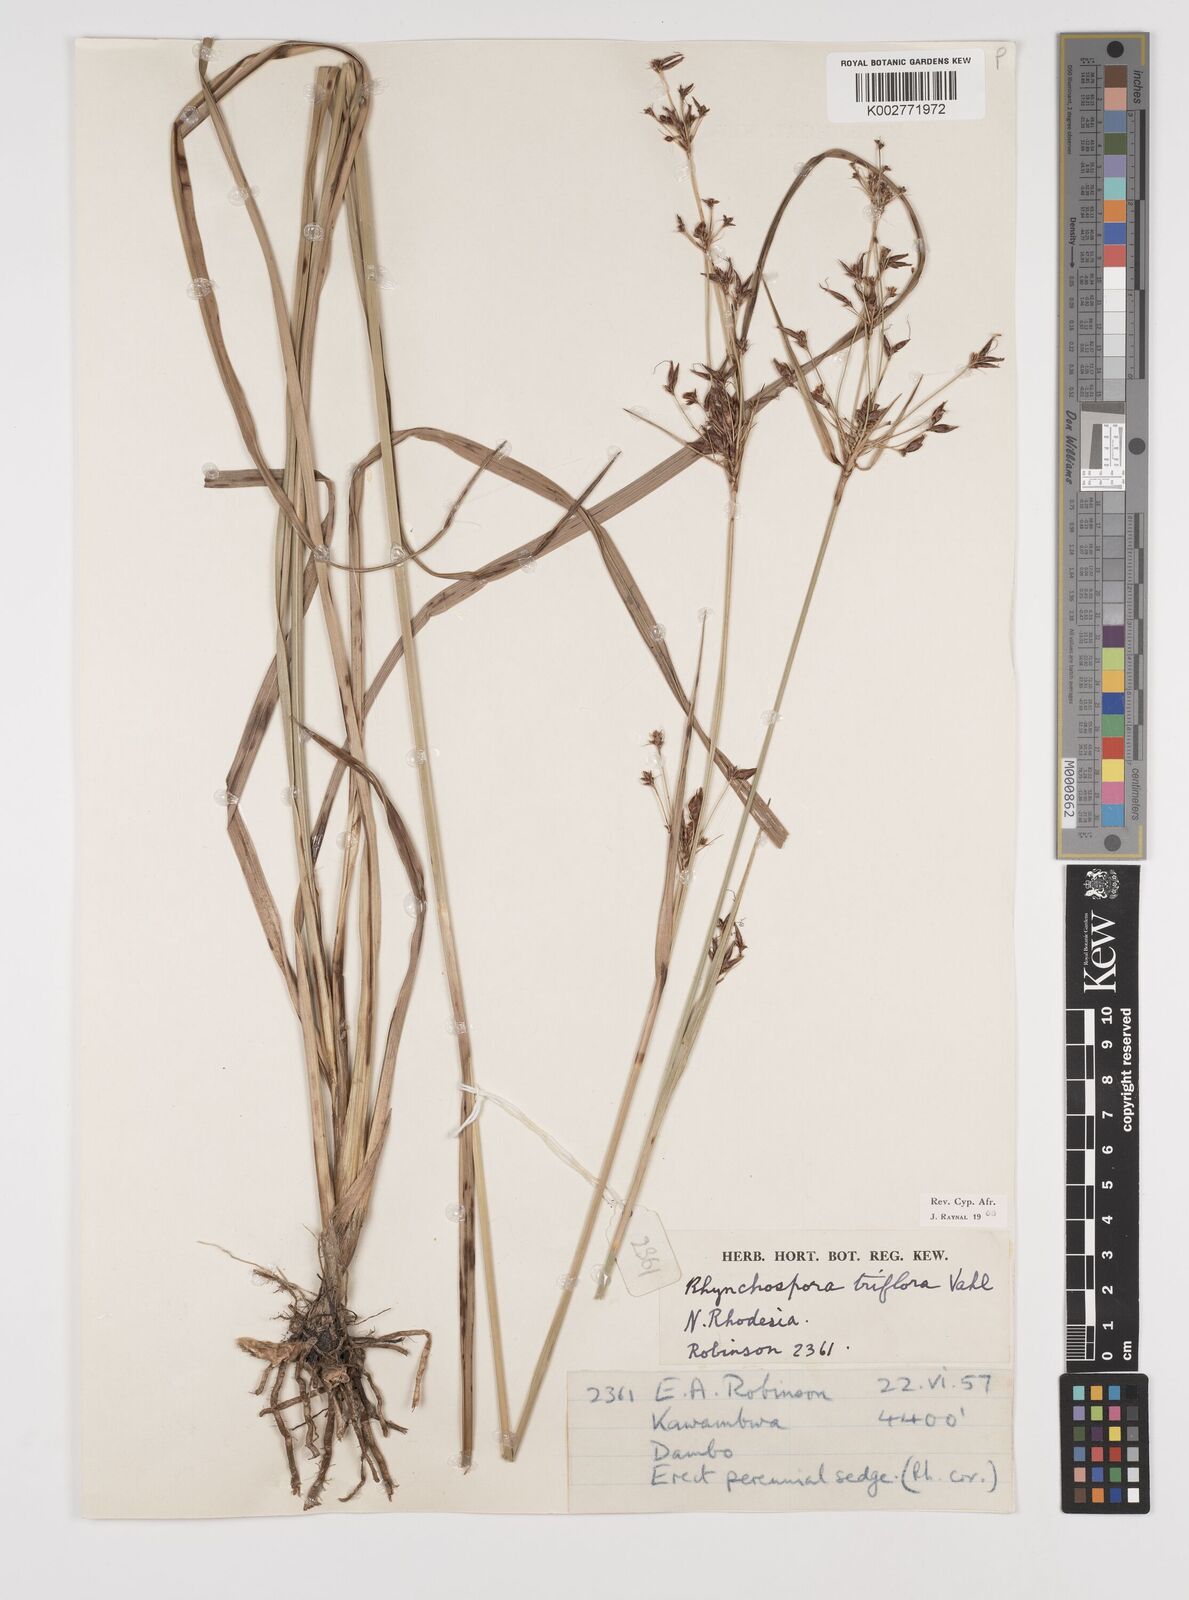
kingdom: Plantae
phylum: Tracheophyta
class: Liliopsida
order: Poales
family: Cyperaceae
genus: Rhynchospora
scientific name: Rhynchospora triflora
